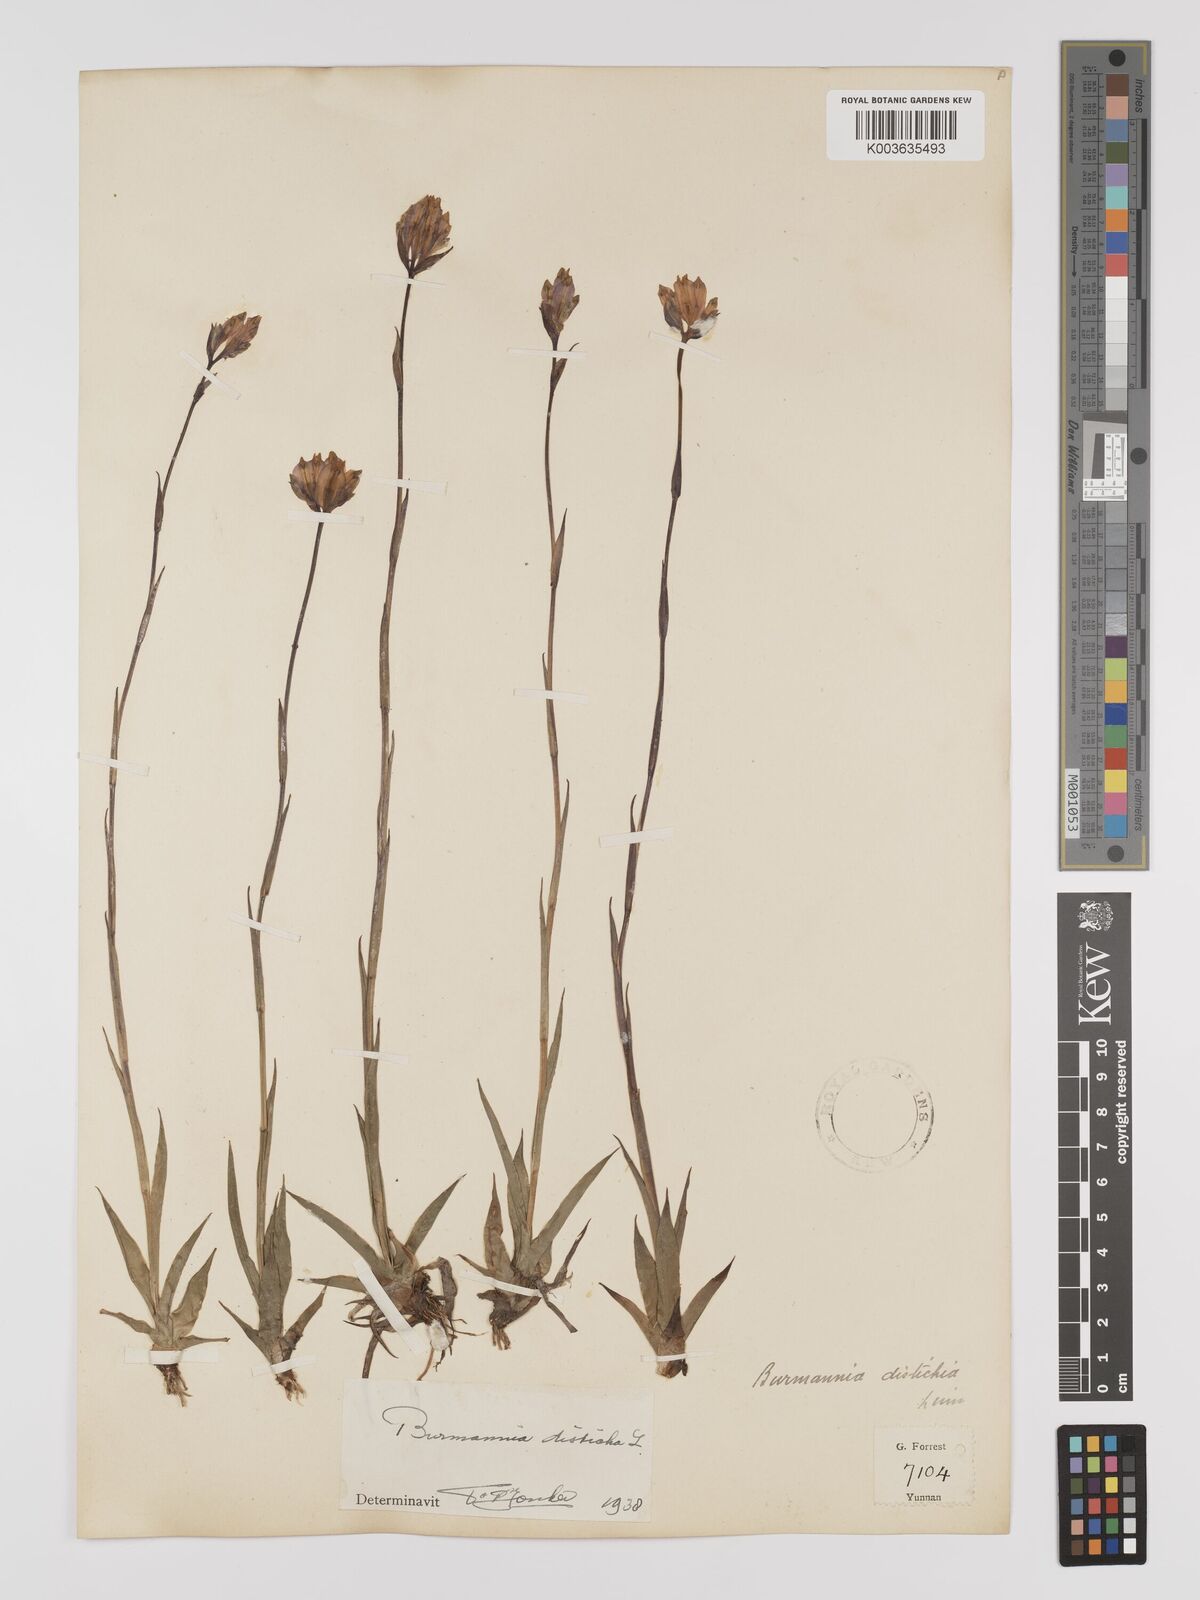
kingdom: Plantae
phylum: Tracheophyta
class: Liliopsida
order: Dioscoreales
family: Burmanniaceae
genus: Burmannia
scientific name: Burmannia disticha
